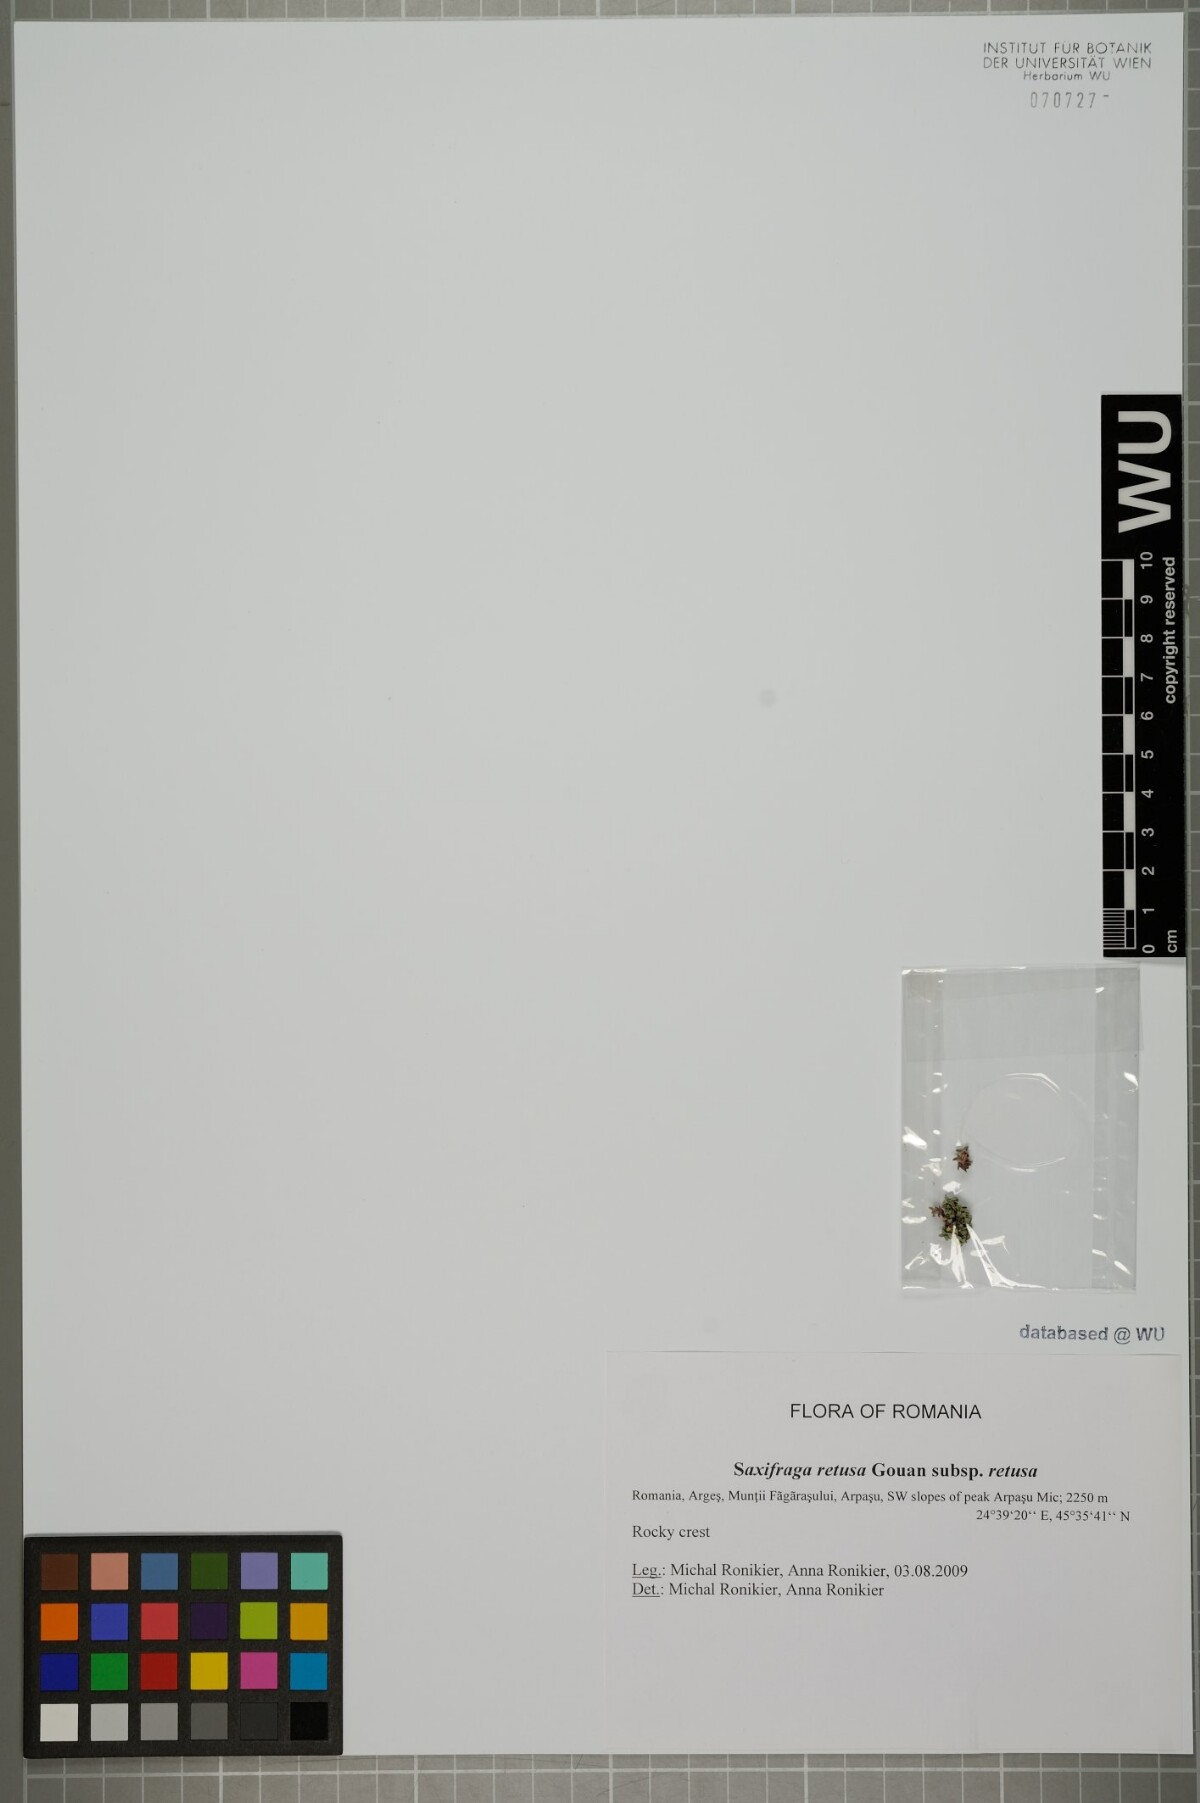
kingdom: Plantae
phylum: Tracheophyta
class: Magnoliopsida
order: Saxifragales
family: Saxifragaceae
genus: Saxifraga
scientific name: Saxifraga retusa
